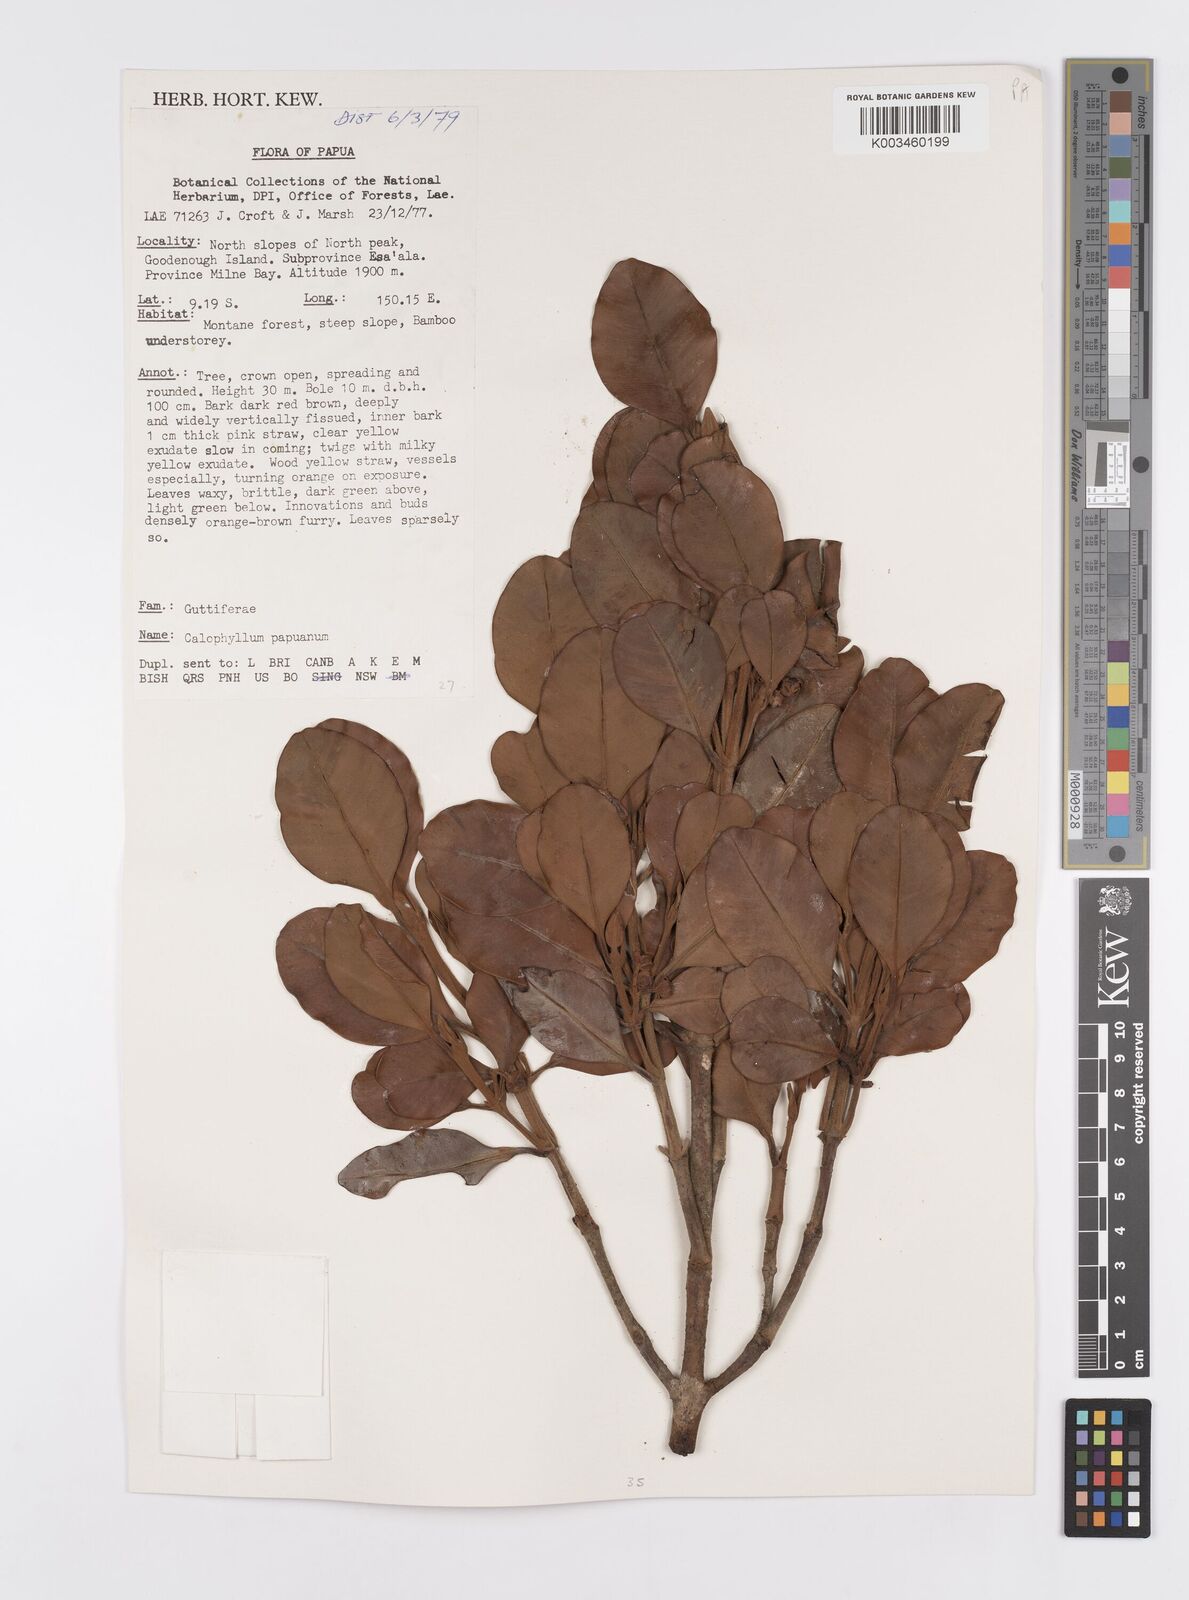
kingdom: Plantae
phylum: Tracheophyta
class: Magnoliopsida
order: Malpighiales
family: Calophyllaceae
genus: Calophyllum
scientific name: Calophyllum papuanum
